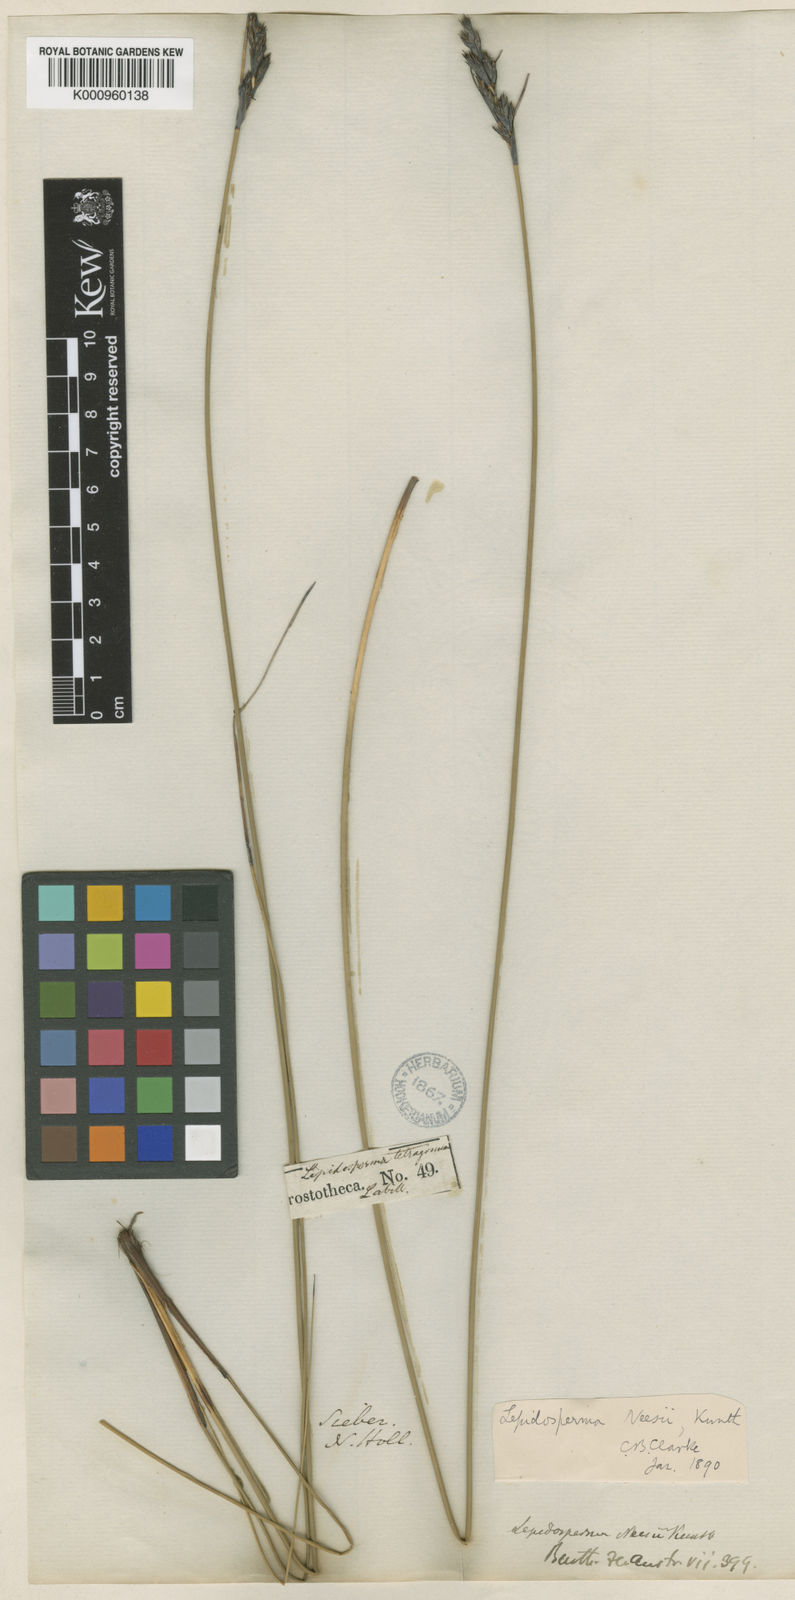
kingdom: Plantae
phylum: Tracheophyta
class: Liliopsida
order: Poales
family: Cyperaceae
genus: Lepidosperma
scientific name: Lepidosperma neesii
